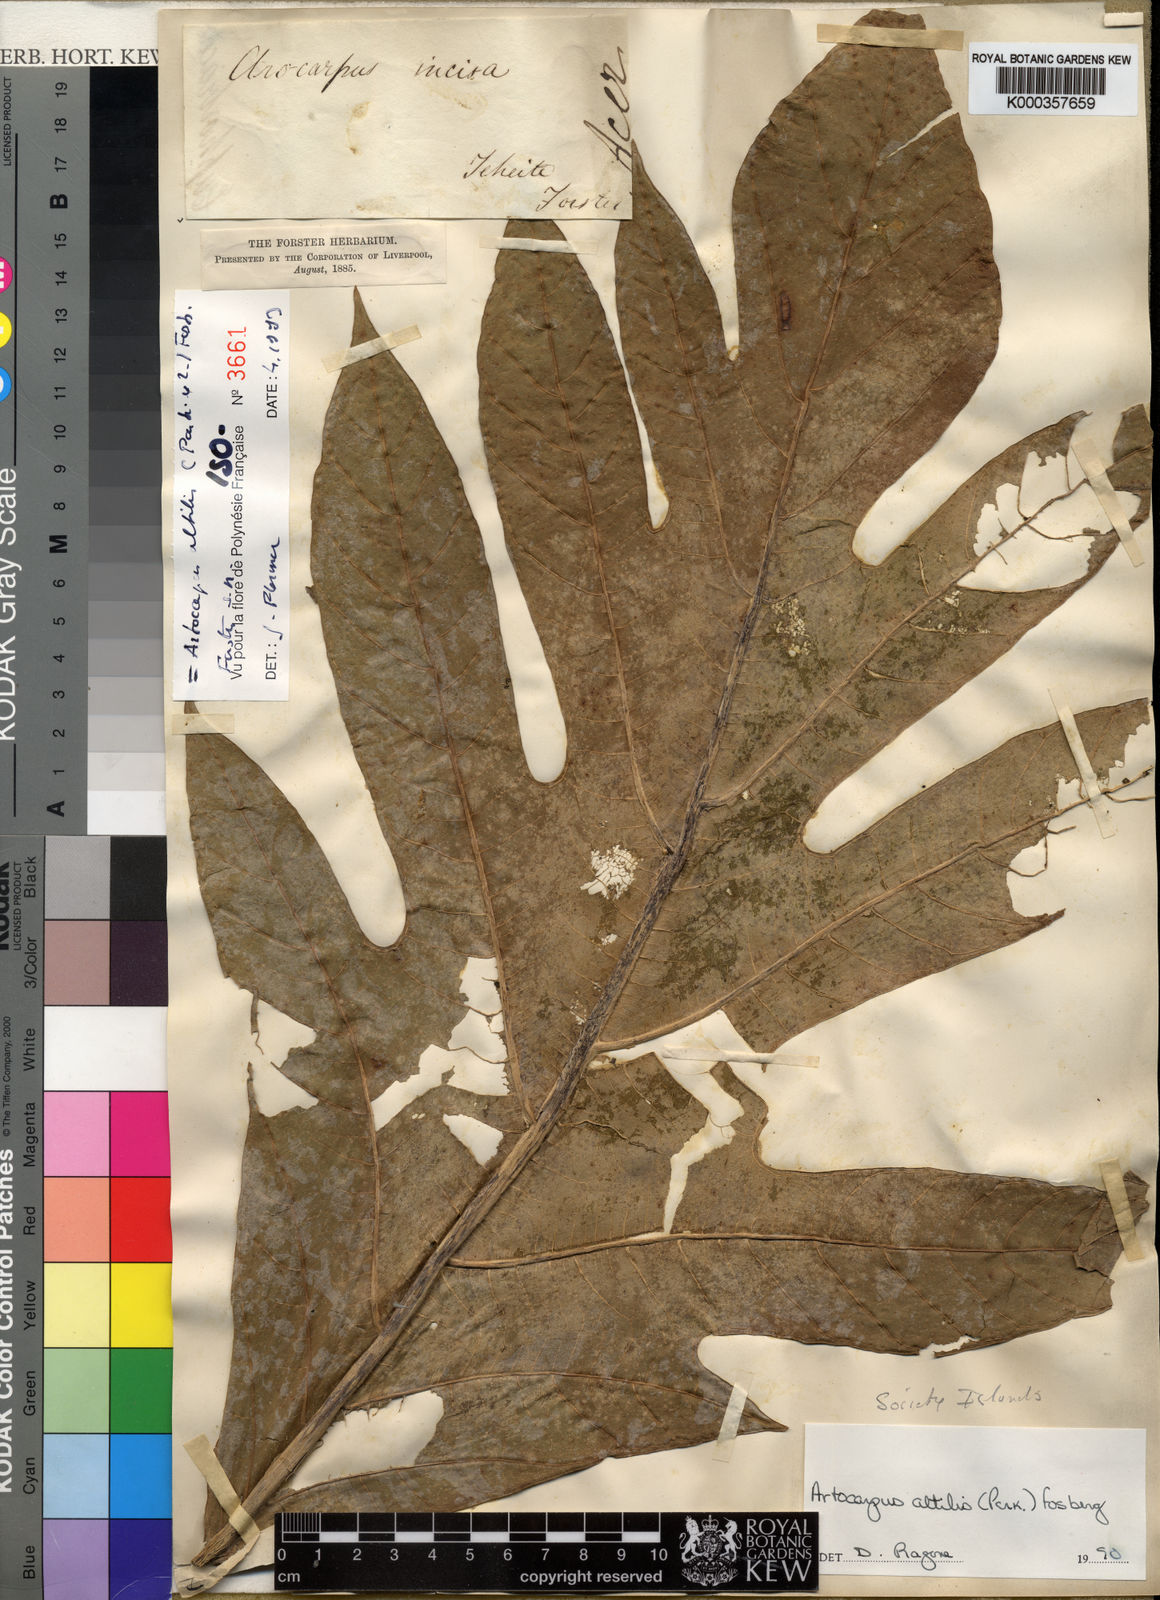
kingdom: Plantae
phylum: Tracheophyta
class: Magnoliopsida
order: Rosales
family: Moraceae
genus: Artocarpus
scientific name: Artocarpus altilis
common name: Breadfruit
